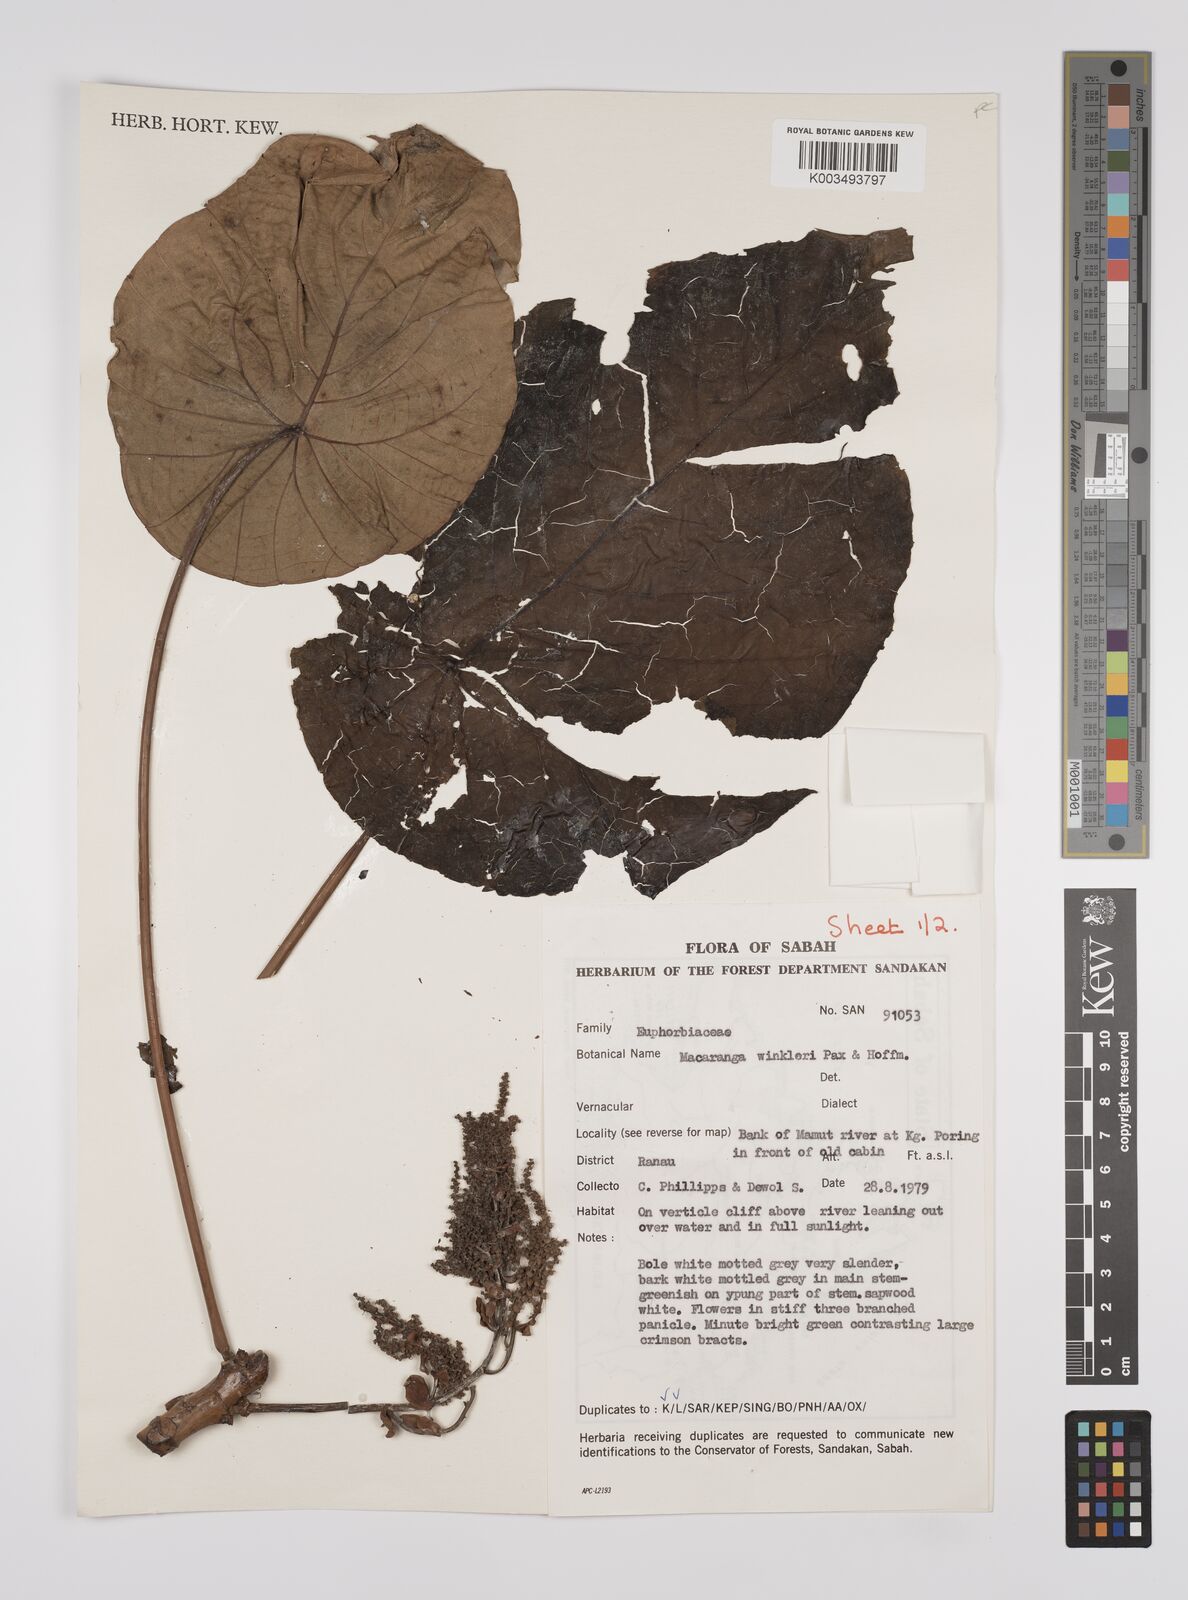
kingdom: Plantae
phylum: Tracheophyta
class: Magnoliopsida
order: Malpighiales
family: Euphorbiaceae
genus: Macaranga
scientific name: Macaranga winkleri
